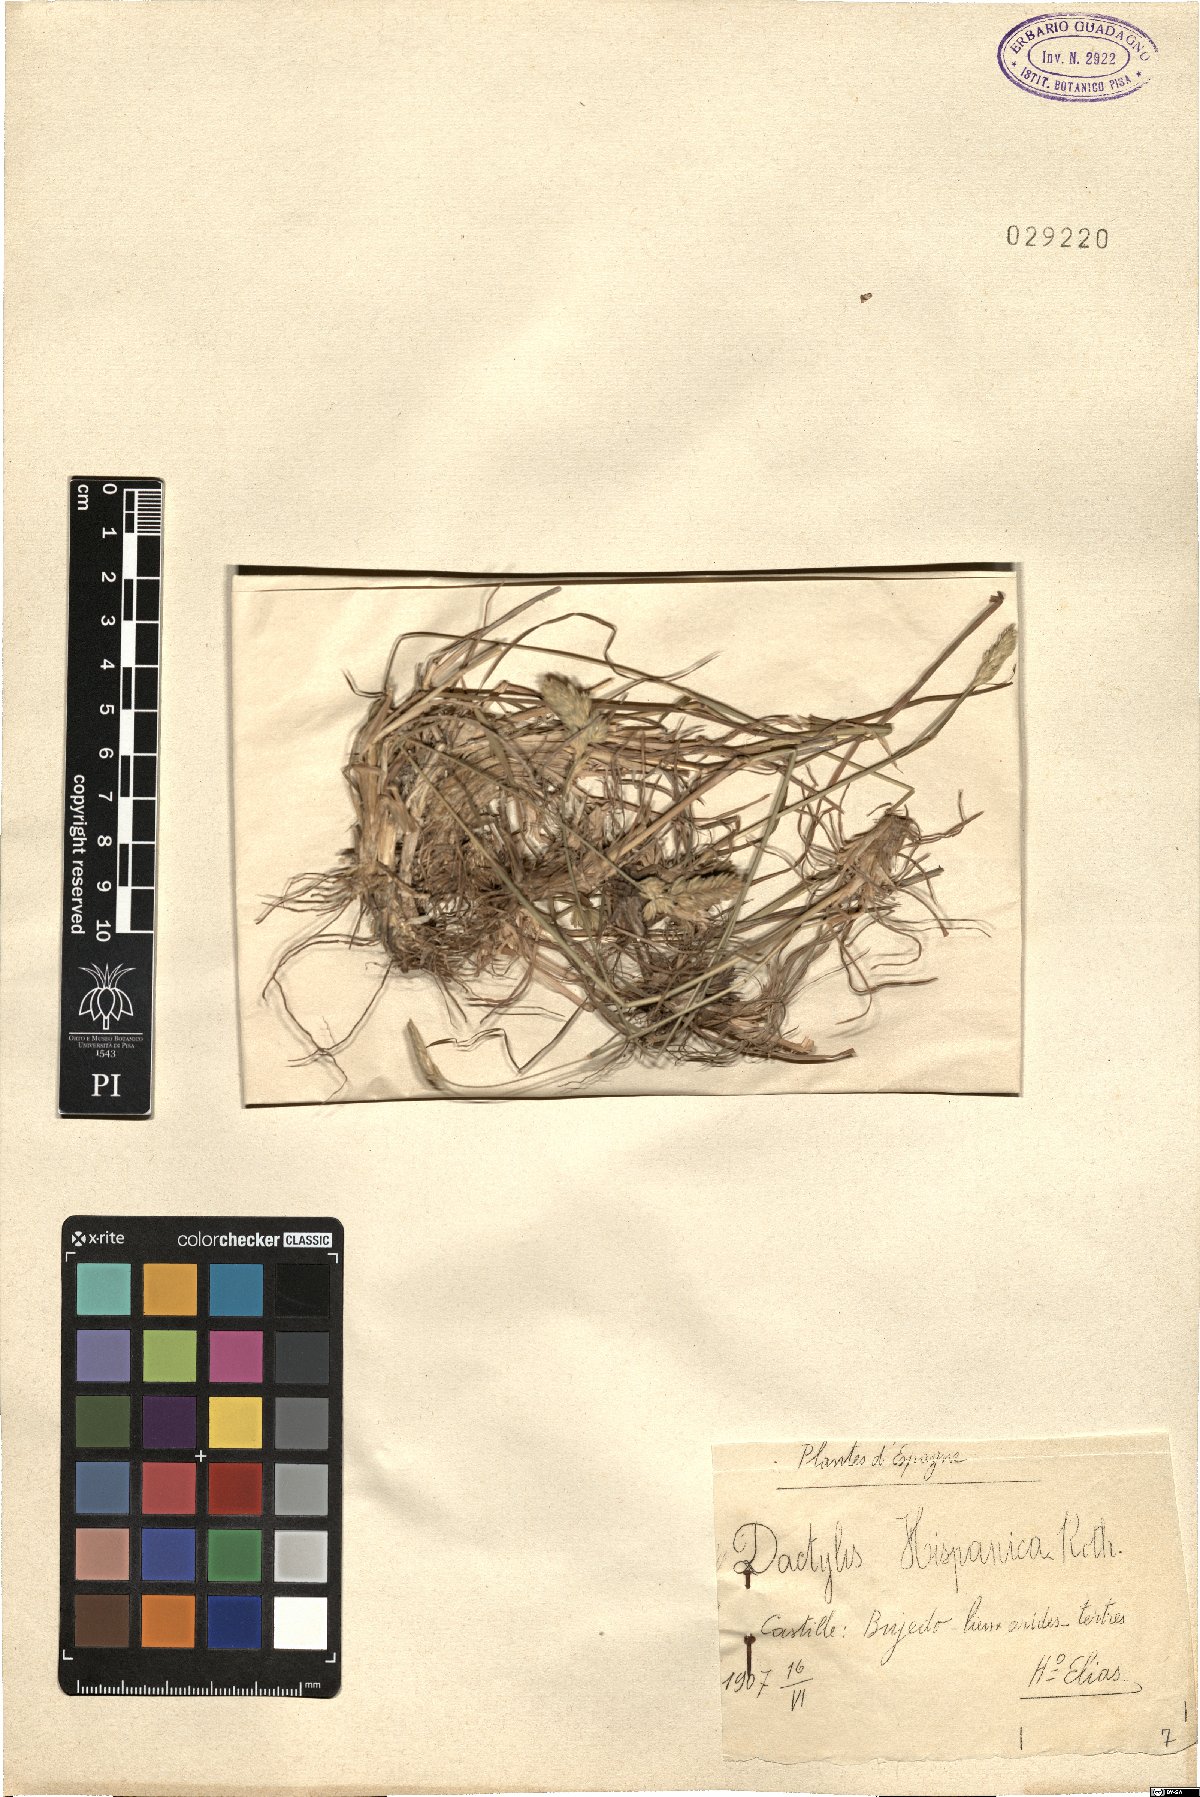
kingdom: Plantae
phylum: Tracheophyta
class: Liliopsida
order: Poales
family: Poaceae
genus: Dactylis
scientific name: Dactylis glomerata
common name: Orchardgrass
